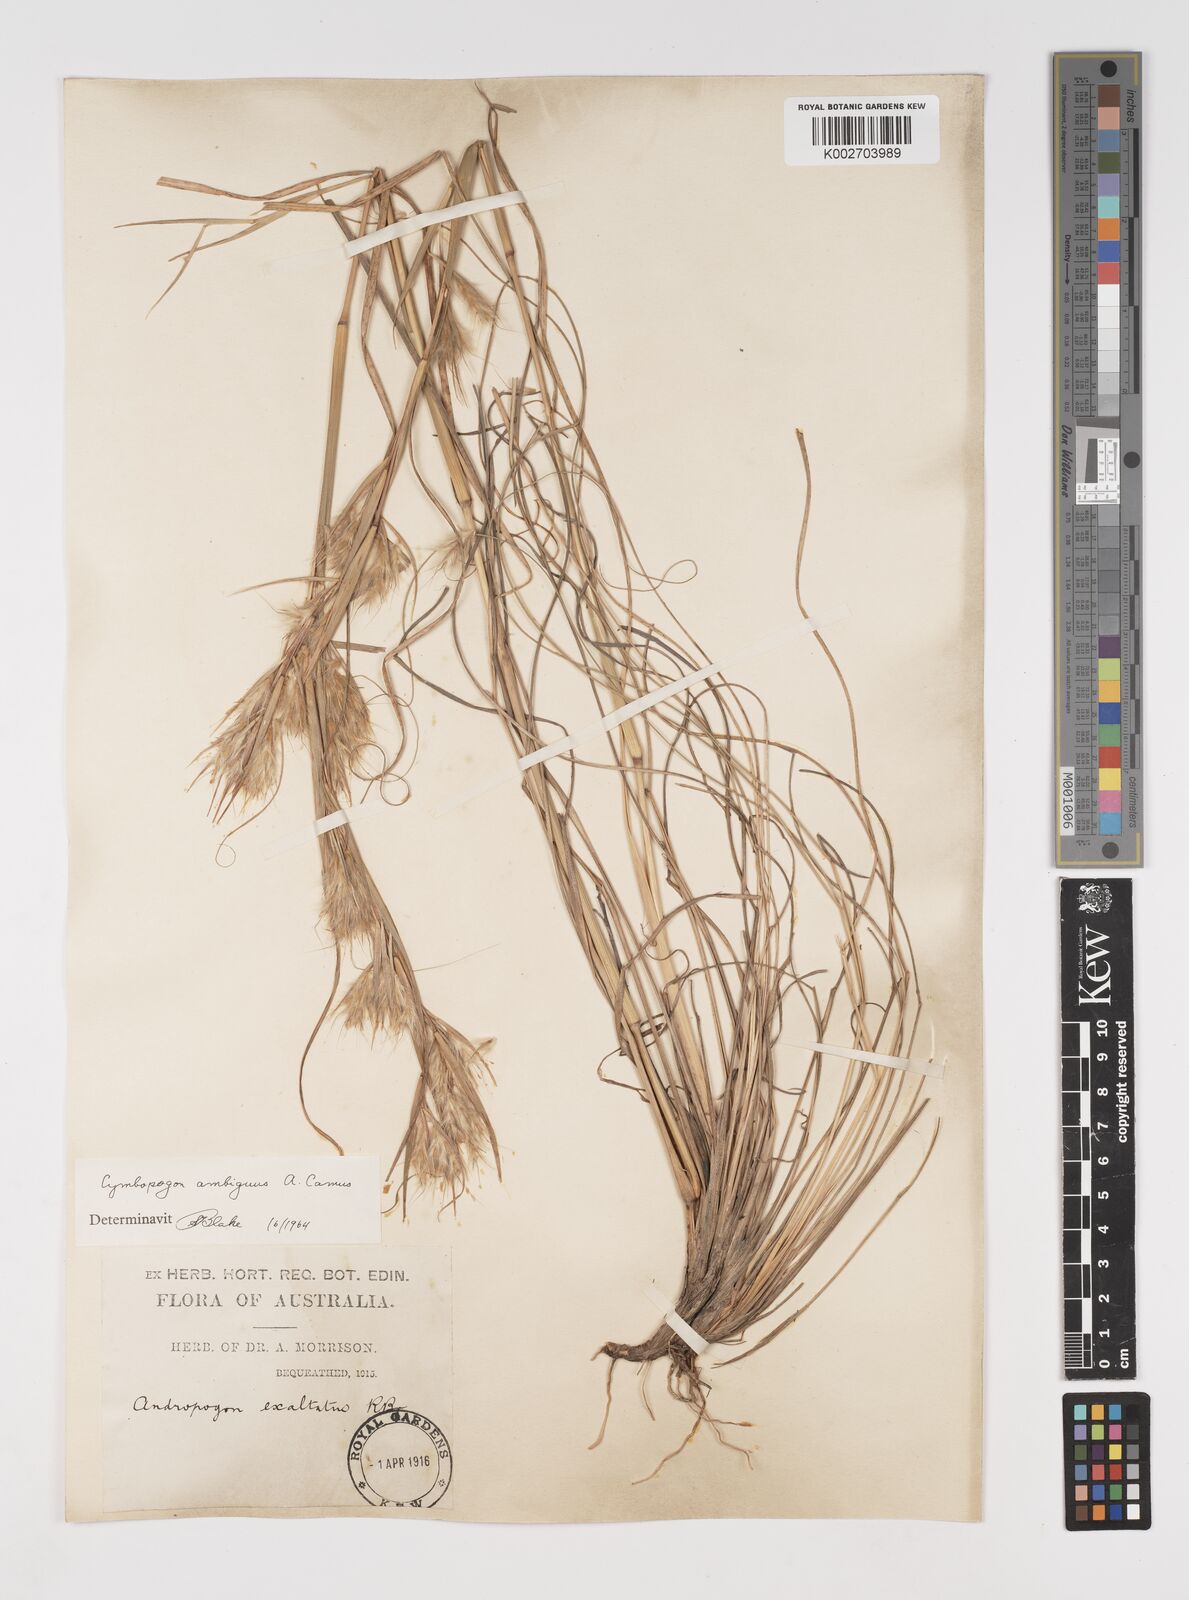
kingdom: Plantae
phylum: Tracheophyta
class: Liliopsida
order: Poales
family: Poaceae
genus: Cymbopogon
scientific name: Cymbopogon ambiguus
